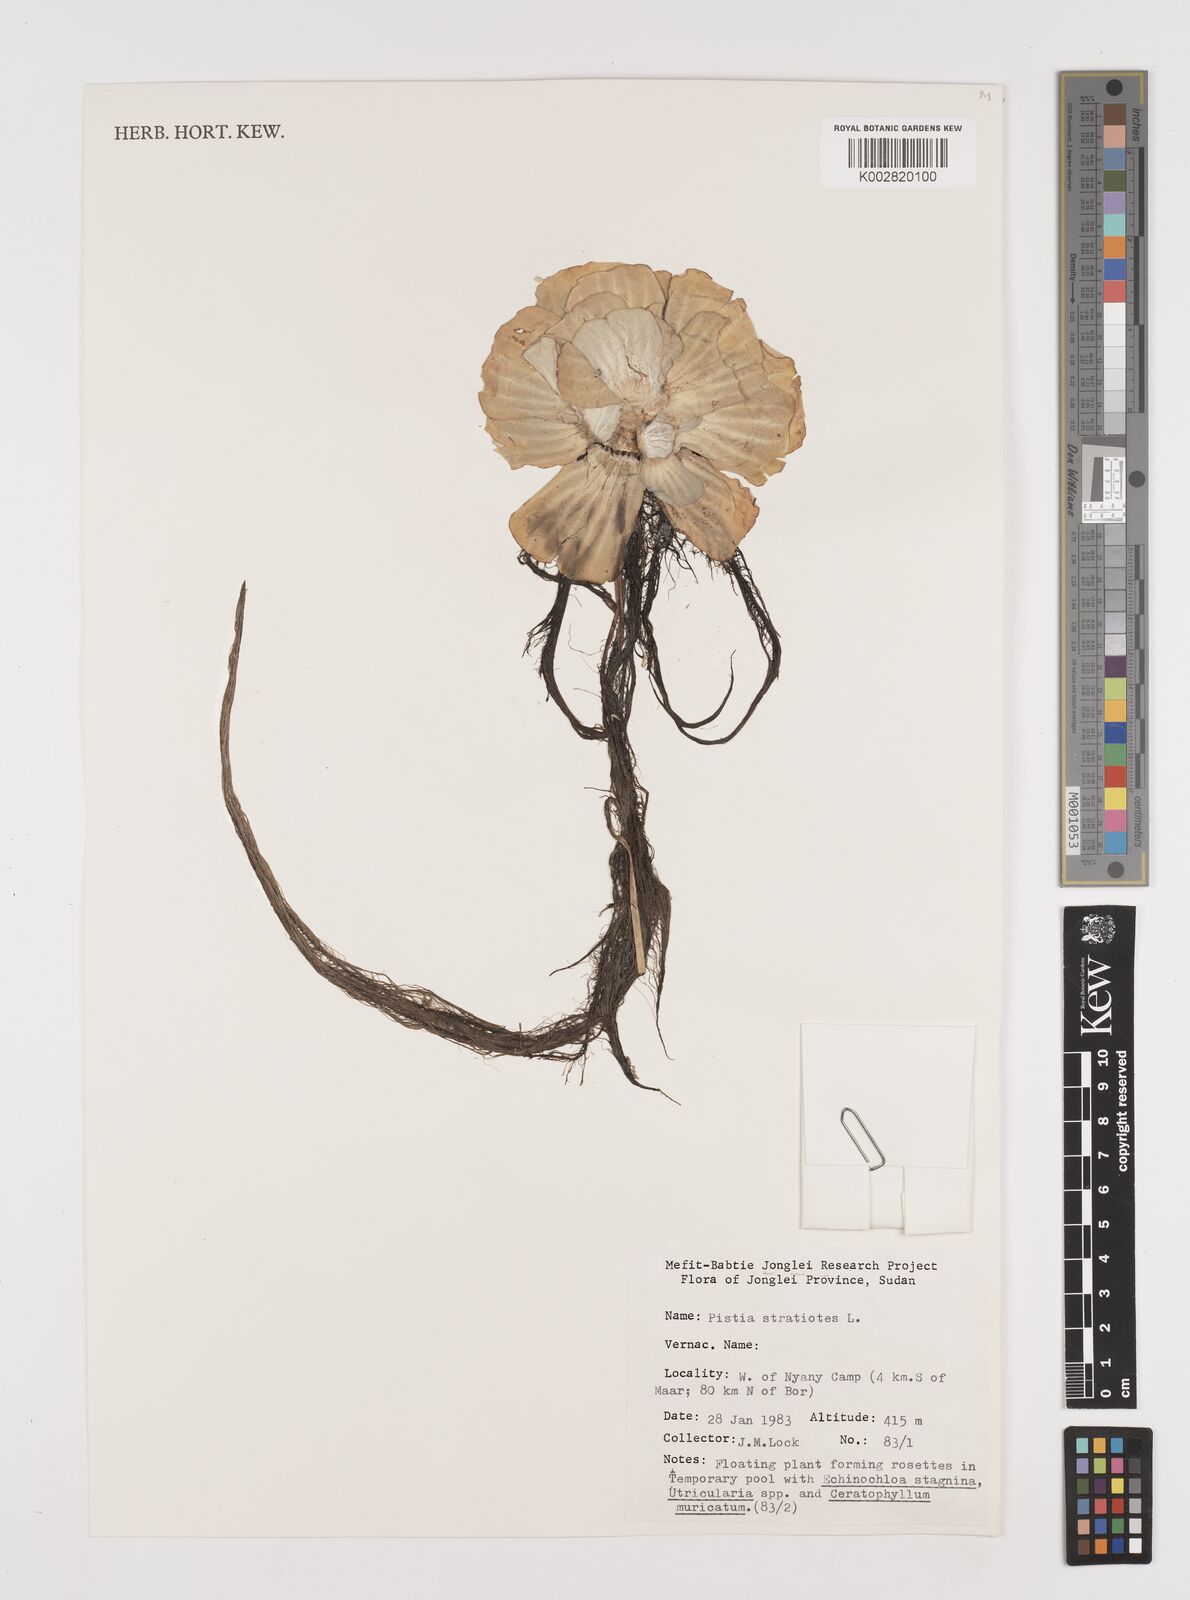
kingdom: Plantae
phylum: Tracheophyta
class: Liliopsida
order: Alismatales
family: Araceae
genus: Pistia
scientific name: Pistia stratiotes
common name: Water lettuce
